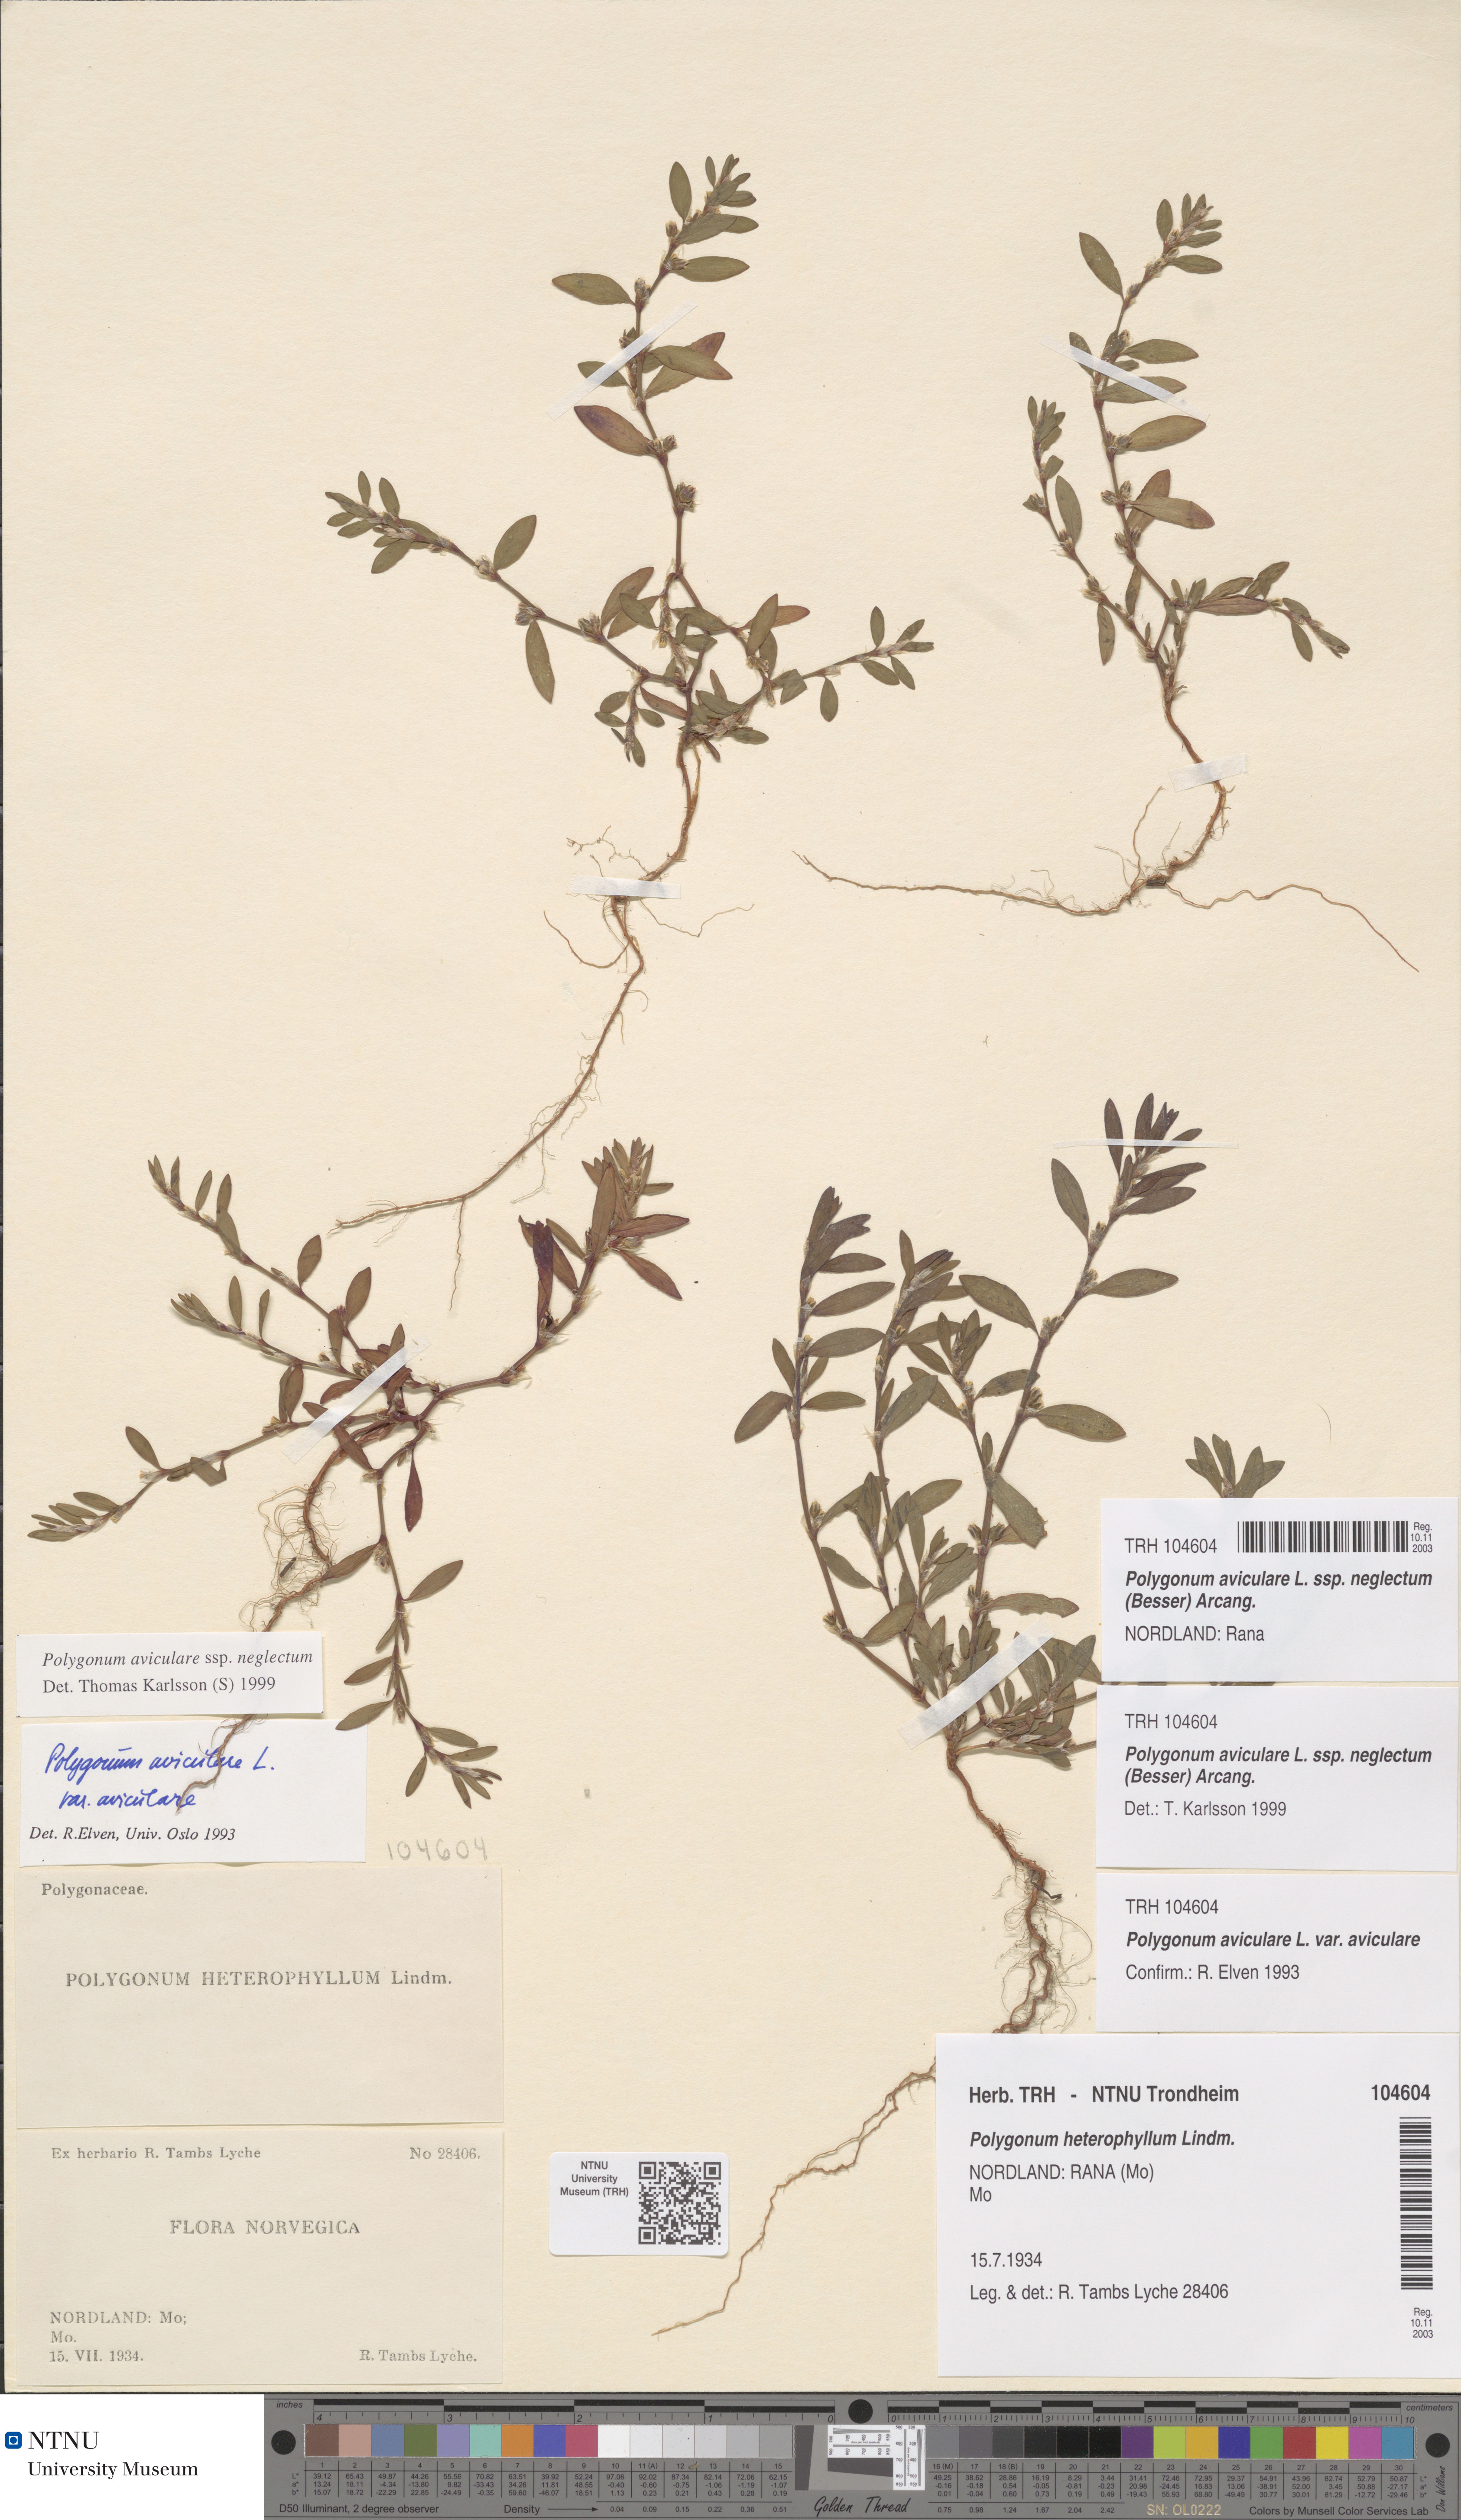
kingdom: Plantae
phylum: Tracheophyta
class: Magnoliopsida
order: Caryophyllales
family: Polygonaceae
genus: Polygonum
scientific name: Polygonum aviculare
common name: Prostrate knotweed
